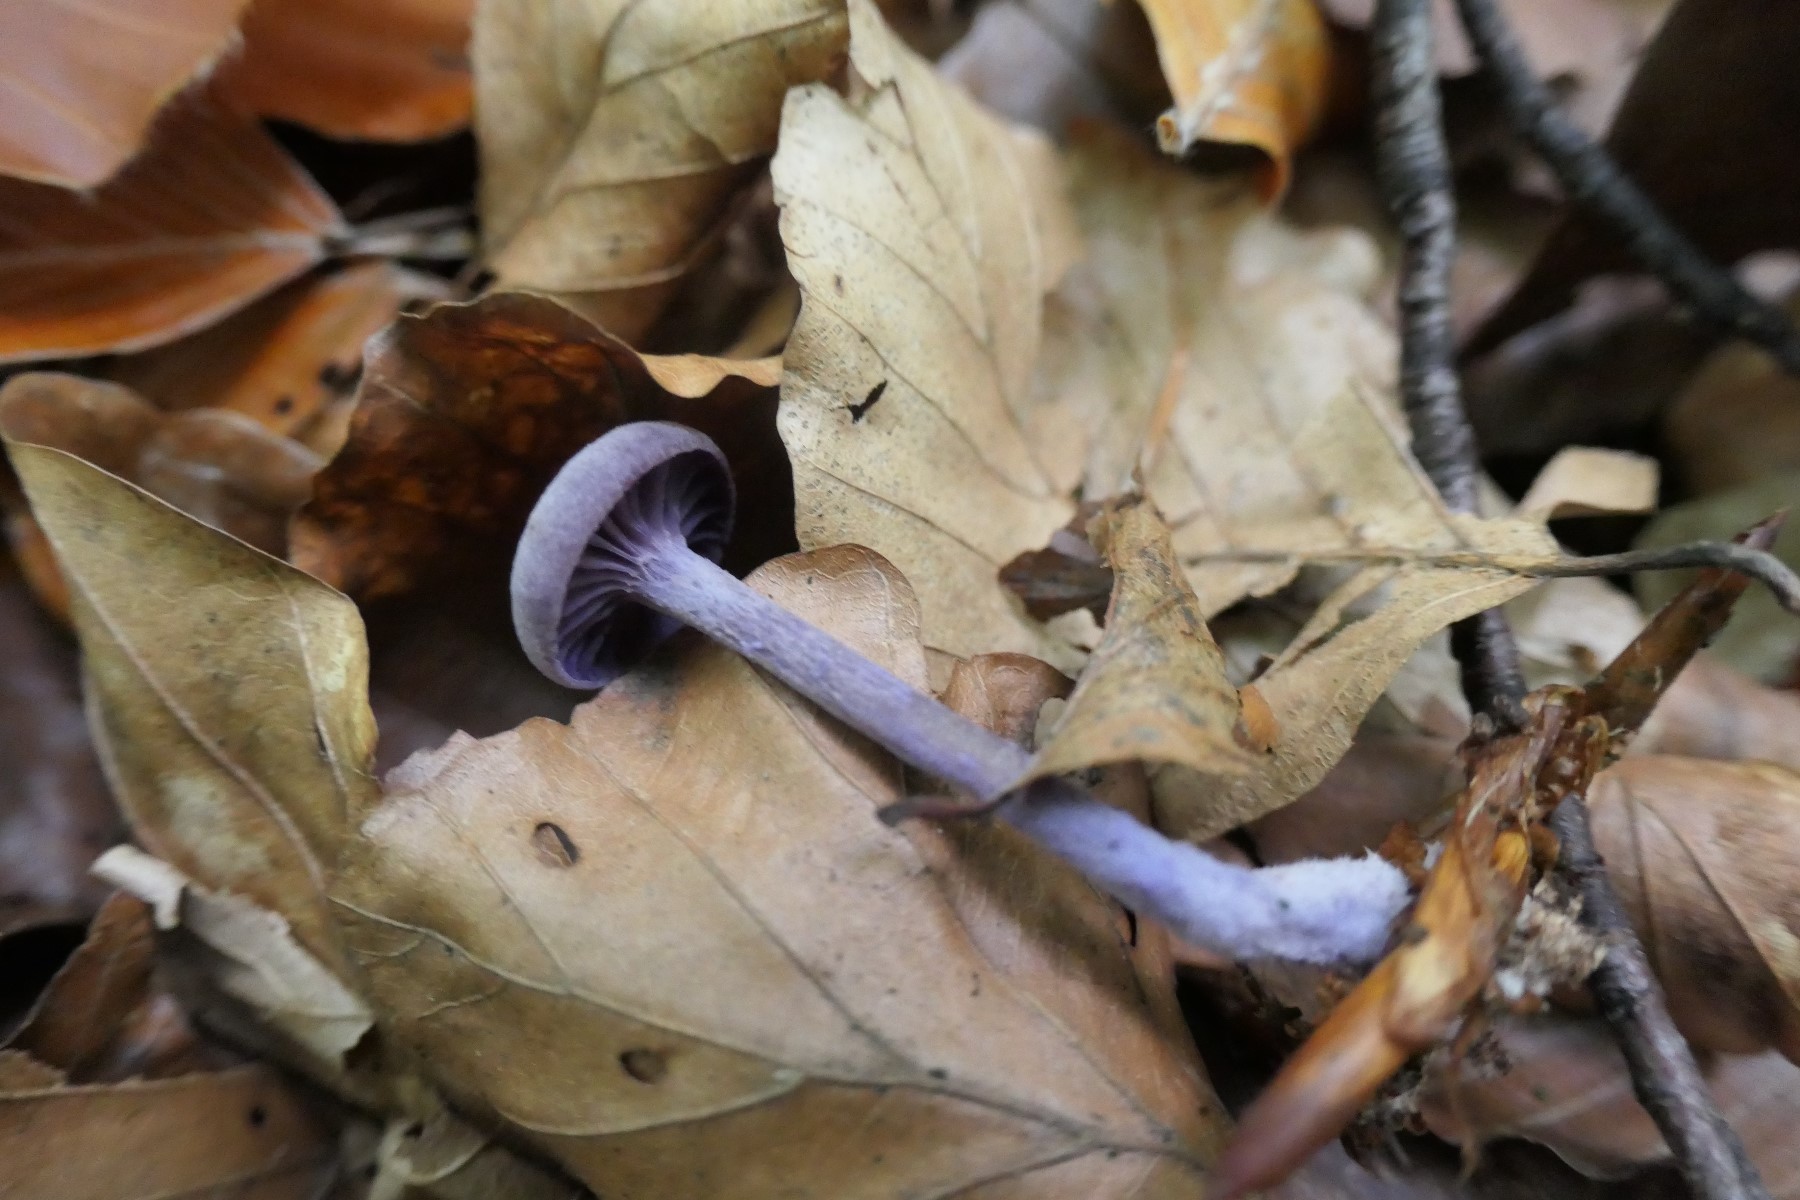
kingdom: Fungi
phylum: Basidiomycota
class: Agaricomycetes
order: Agaricales
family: Hydnangiaceae
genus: Laccaria
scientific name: Laccaria amethystina
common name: violet ametysthat
